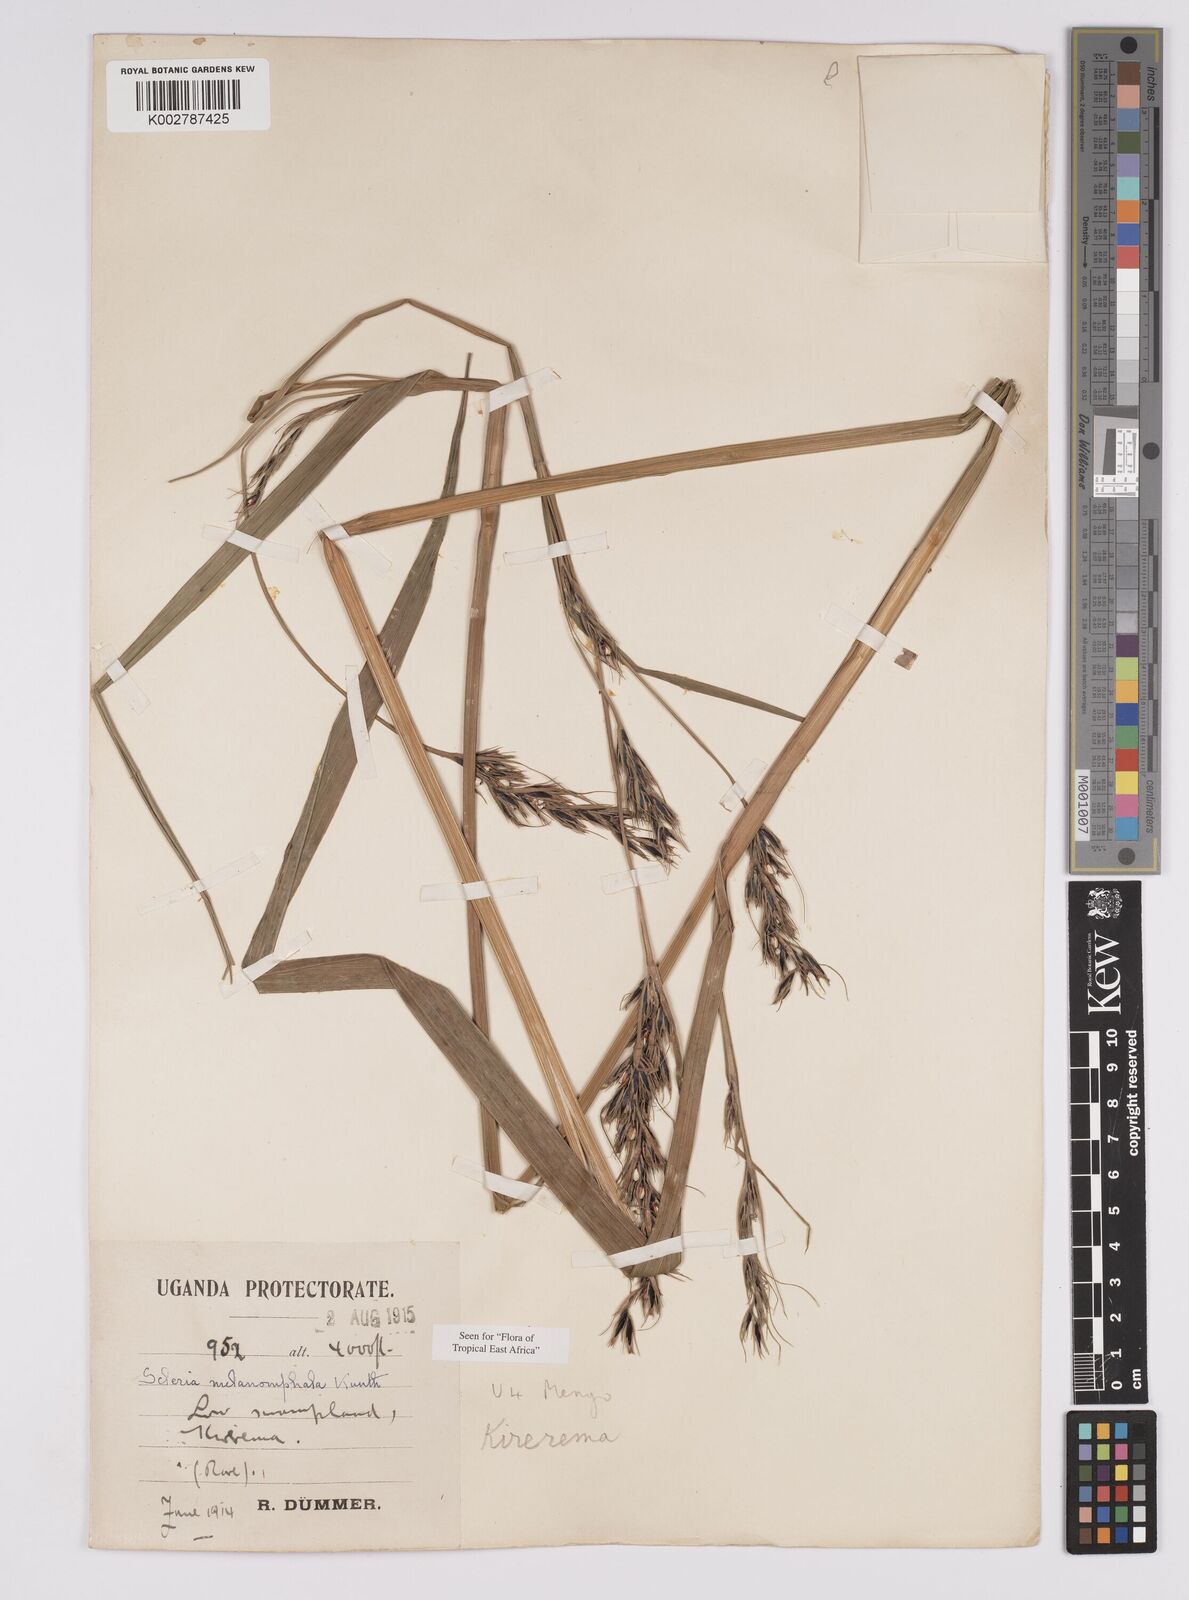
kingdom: Plantae
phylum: Tracheophyta
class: Liliopsida
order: Poales
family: Cyperaceae
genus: Scleria
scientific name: Scleria melanomphala
